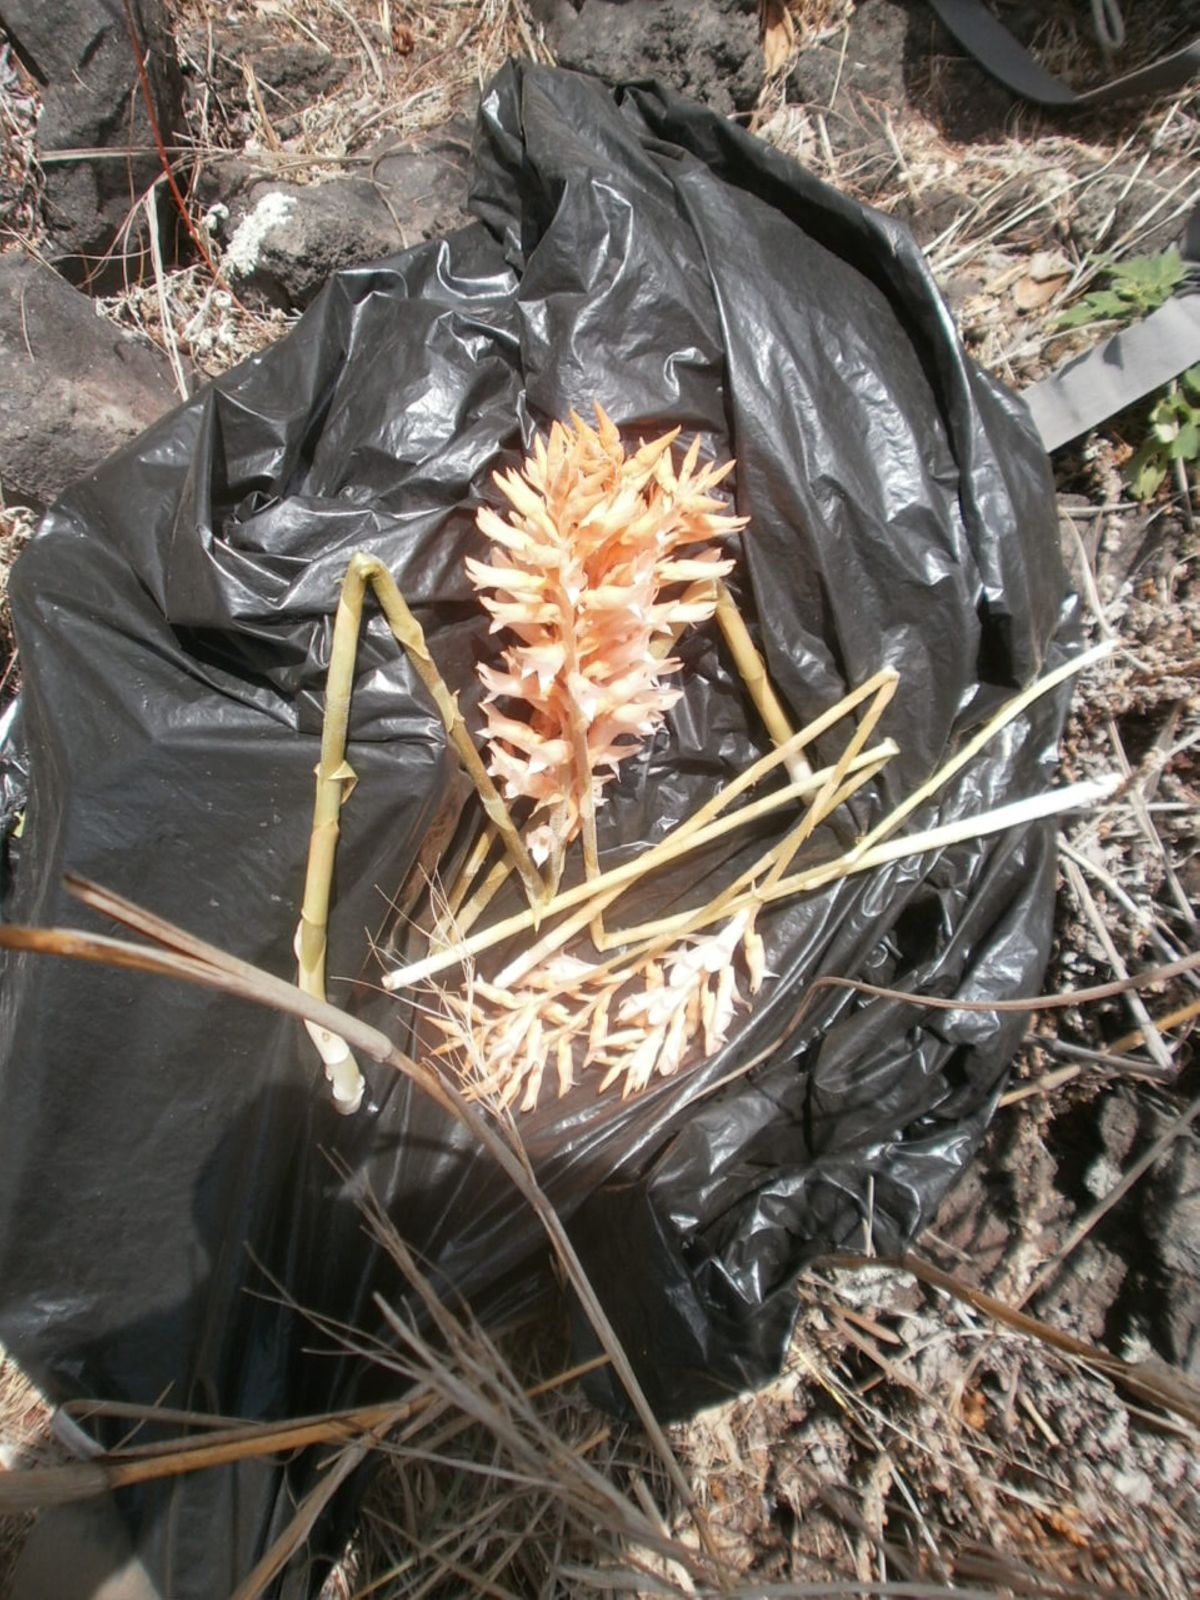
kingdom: Plantae
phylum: Tracheophyta
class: Liliopsida
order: Asparagales
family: Orchidaceae
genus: Spiranthes
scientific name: Spiranthes
